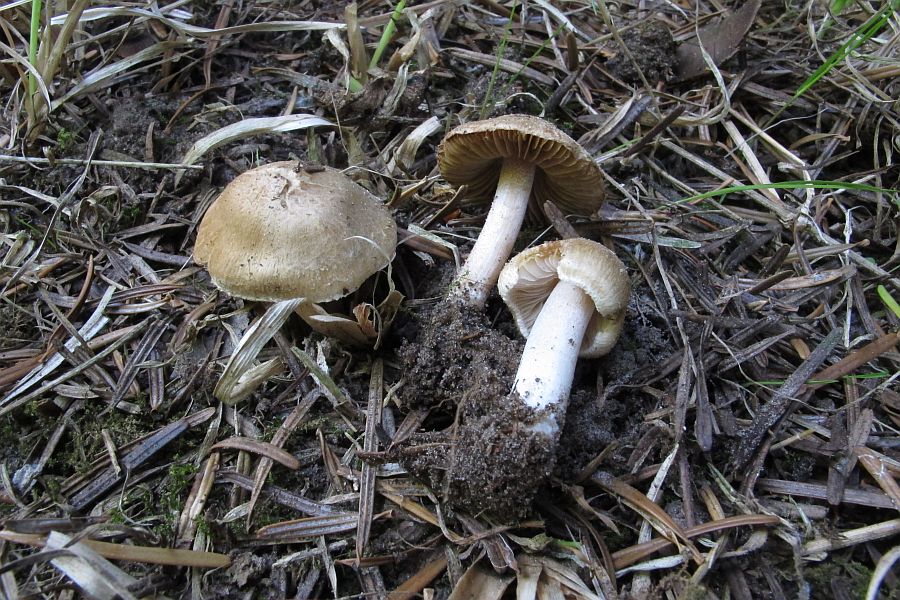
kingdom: Fungi
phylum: Basidiomycota
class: Agaricomycetes
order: Agaricales
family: Inocybaceae
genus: Inocybe
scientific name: Inocybe ochroalba
